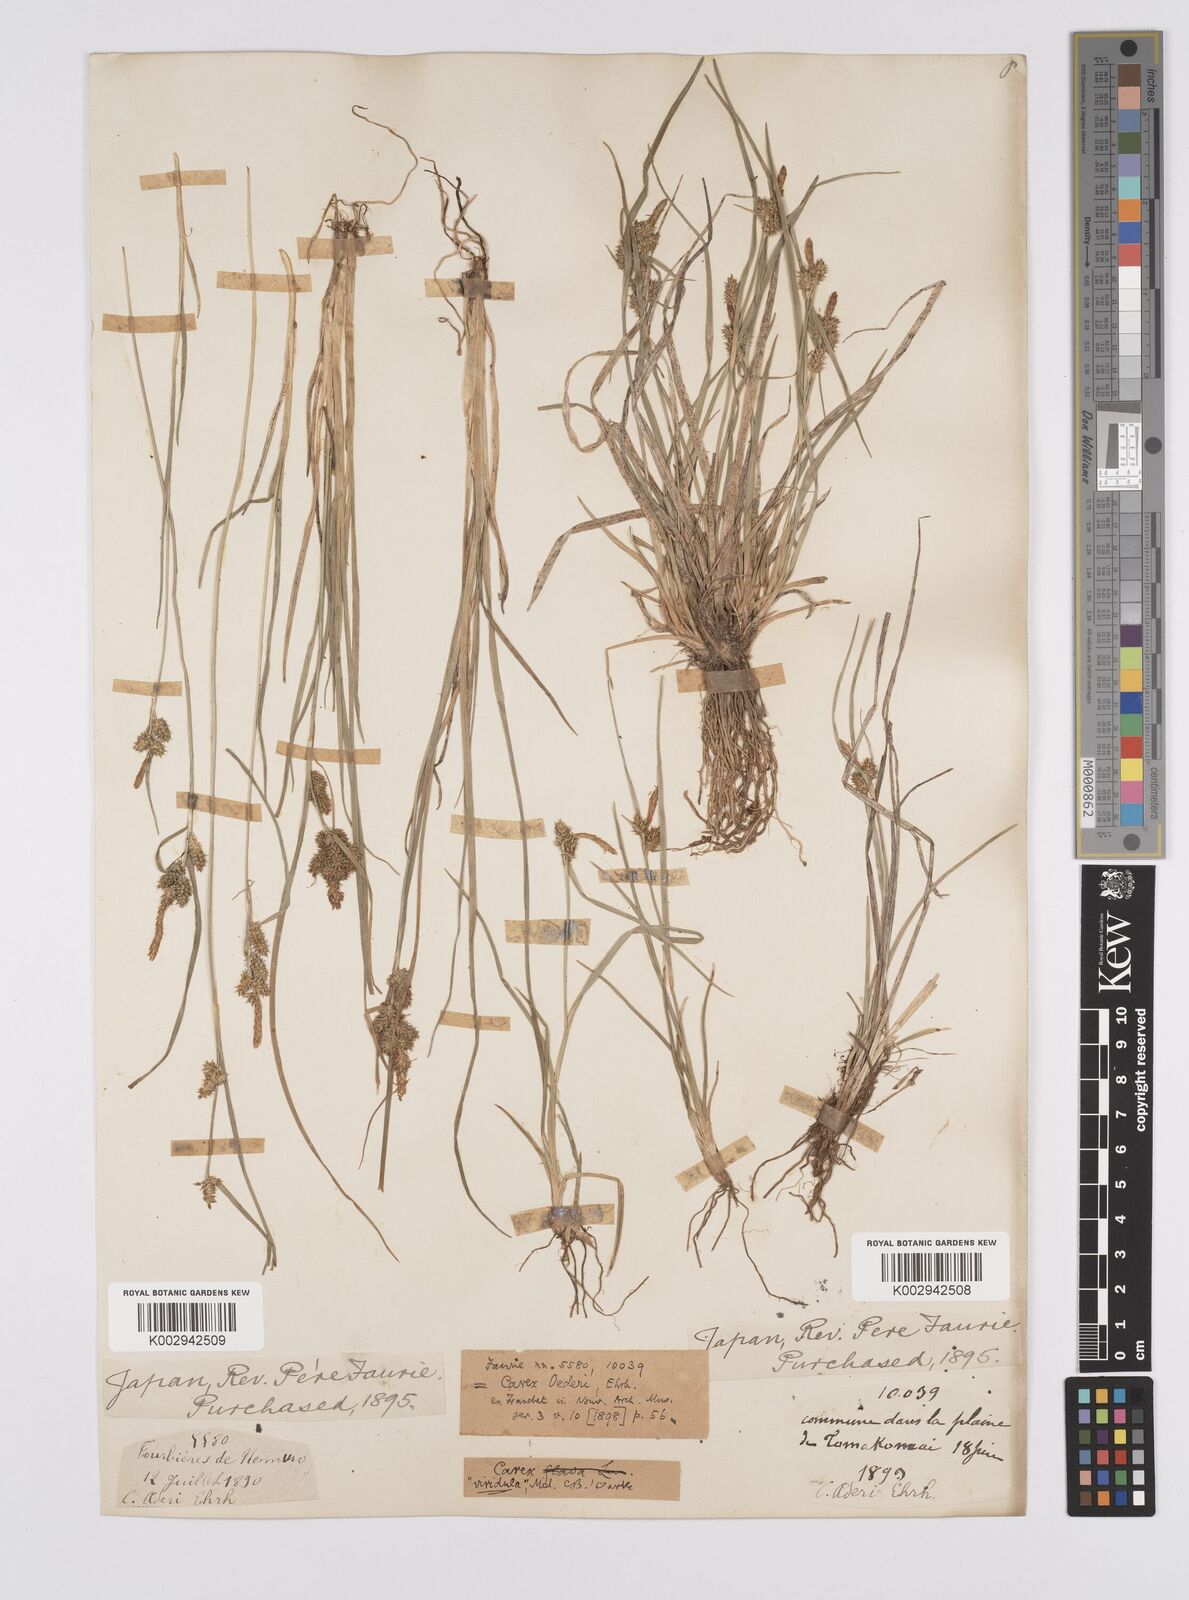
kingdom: Plantae
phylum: Tracheophyta
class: Liliopsida
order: Poales
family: Cyperaceae
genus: Carex
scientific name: Carex oederi
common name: Common & small-fruited yellow-sedge
